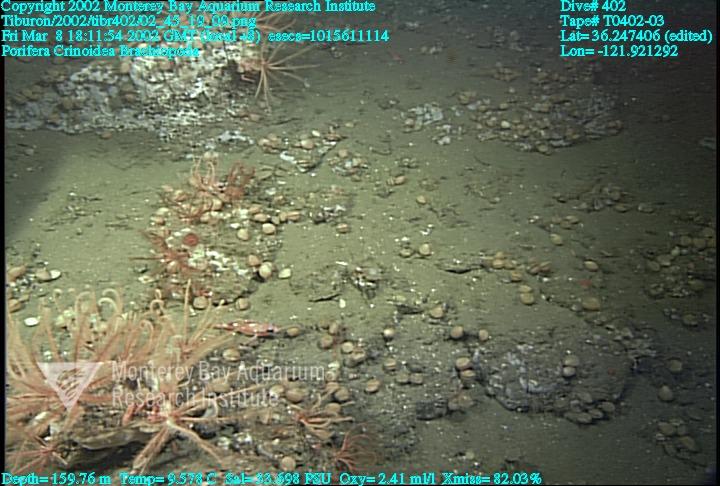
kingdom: Animalia
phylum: Porifera
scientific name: Porifera
